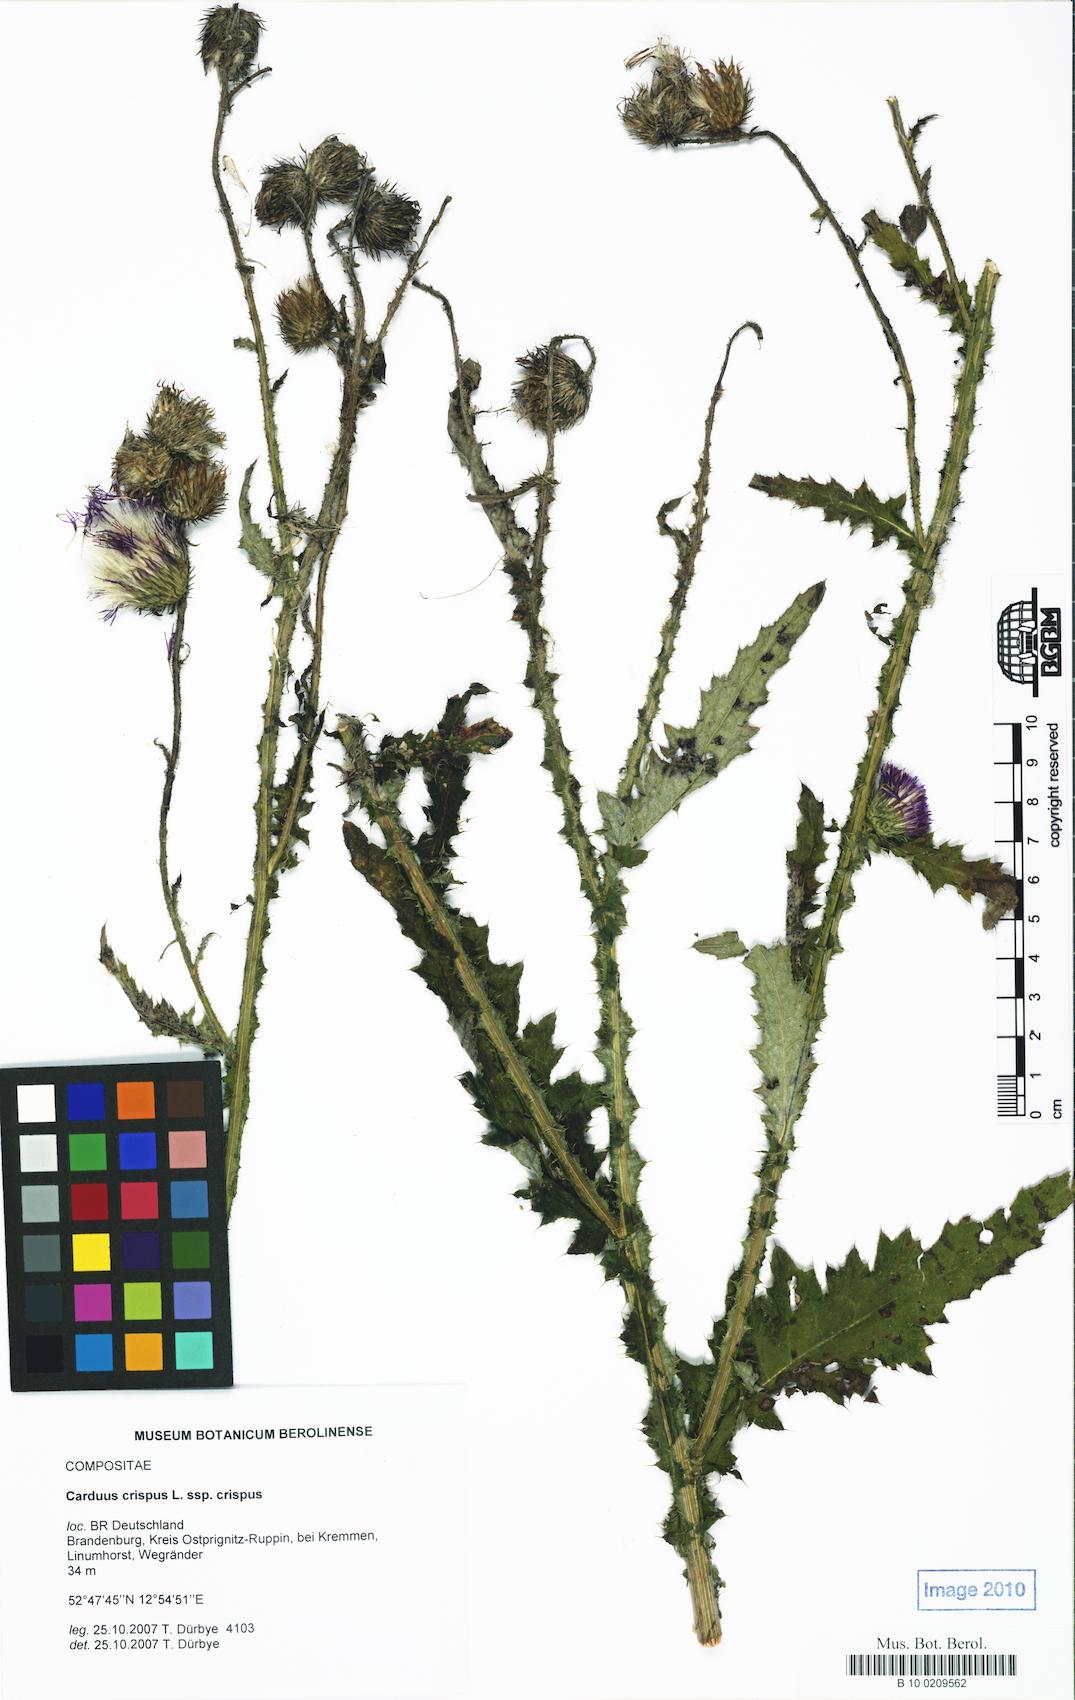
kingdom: Plantae
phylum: Tracheophyta
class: Magnoliopsida
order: Asterales
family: Asteraceae
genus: Carduus
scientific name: Carduus crispus
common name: Welted thistle
